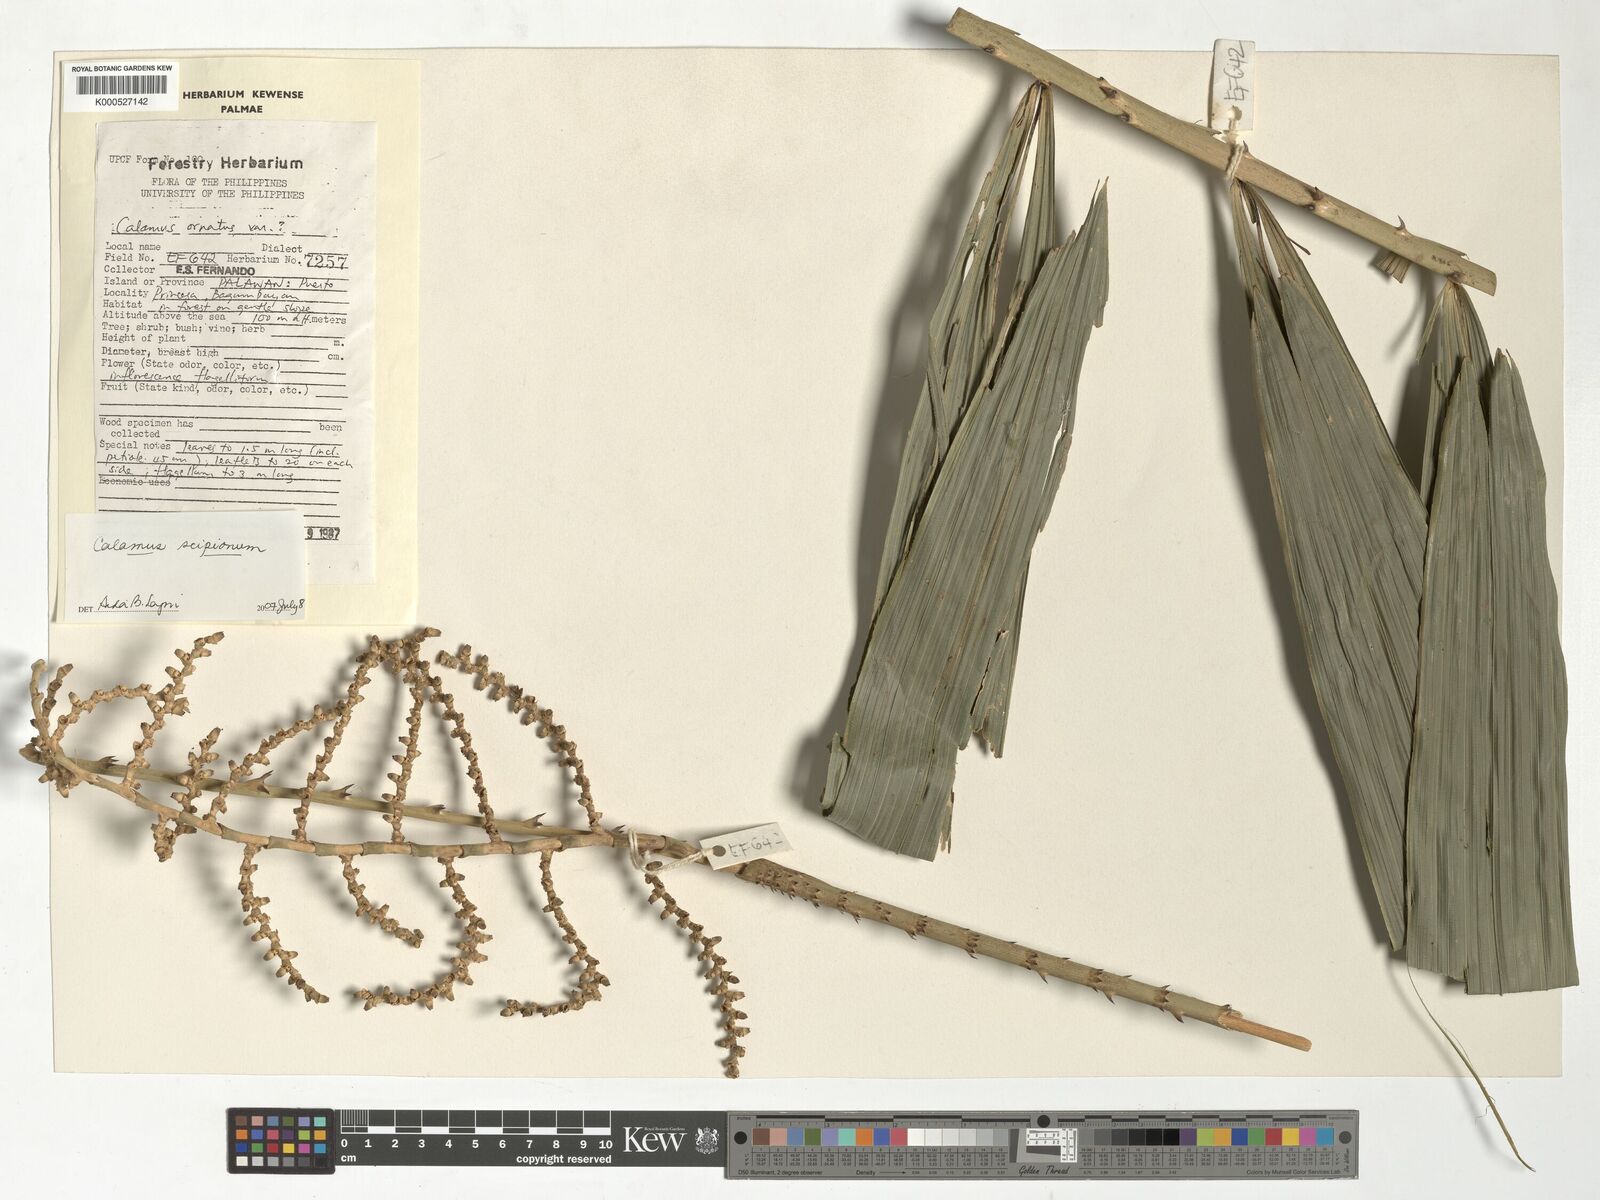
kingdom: Plantae
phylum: Tracheophyta
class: Liliopsida
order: Arecales
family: Arecaceae
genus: Calamus
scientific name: Calamus ornatus
